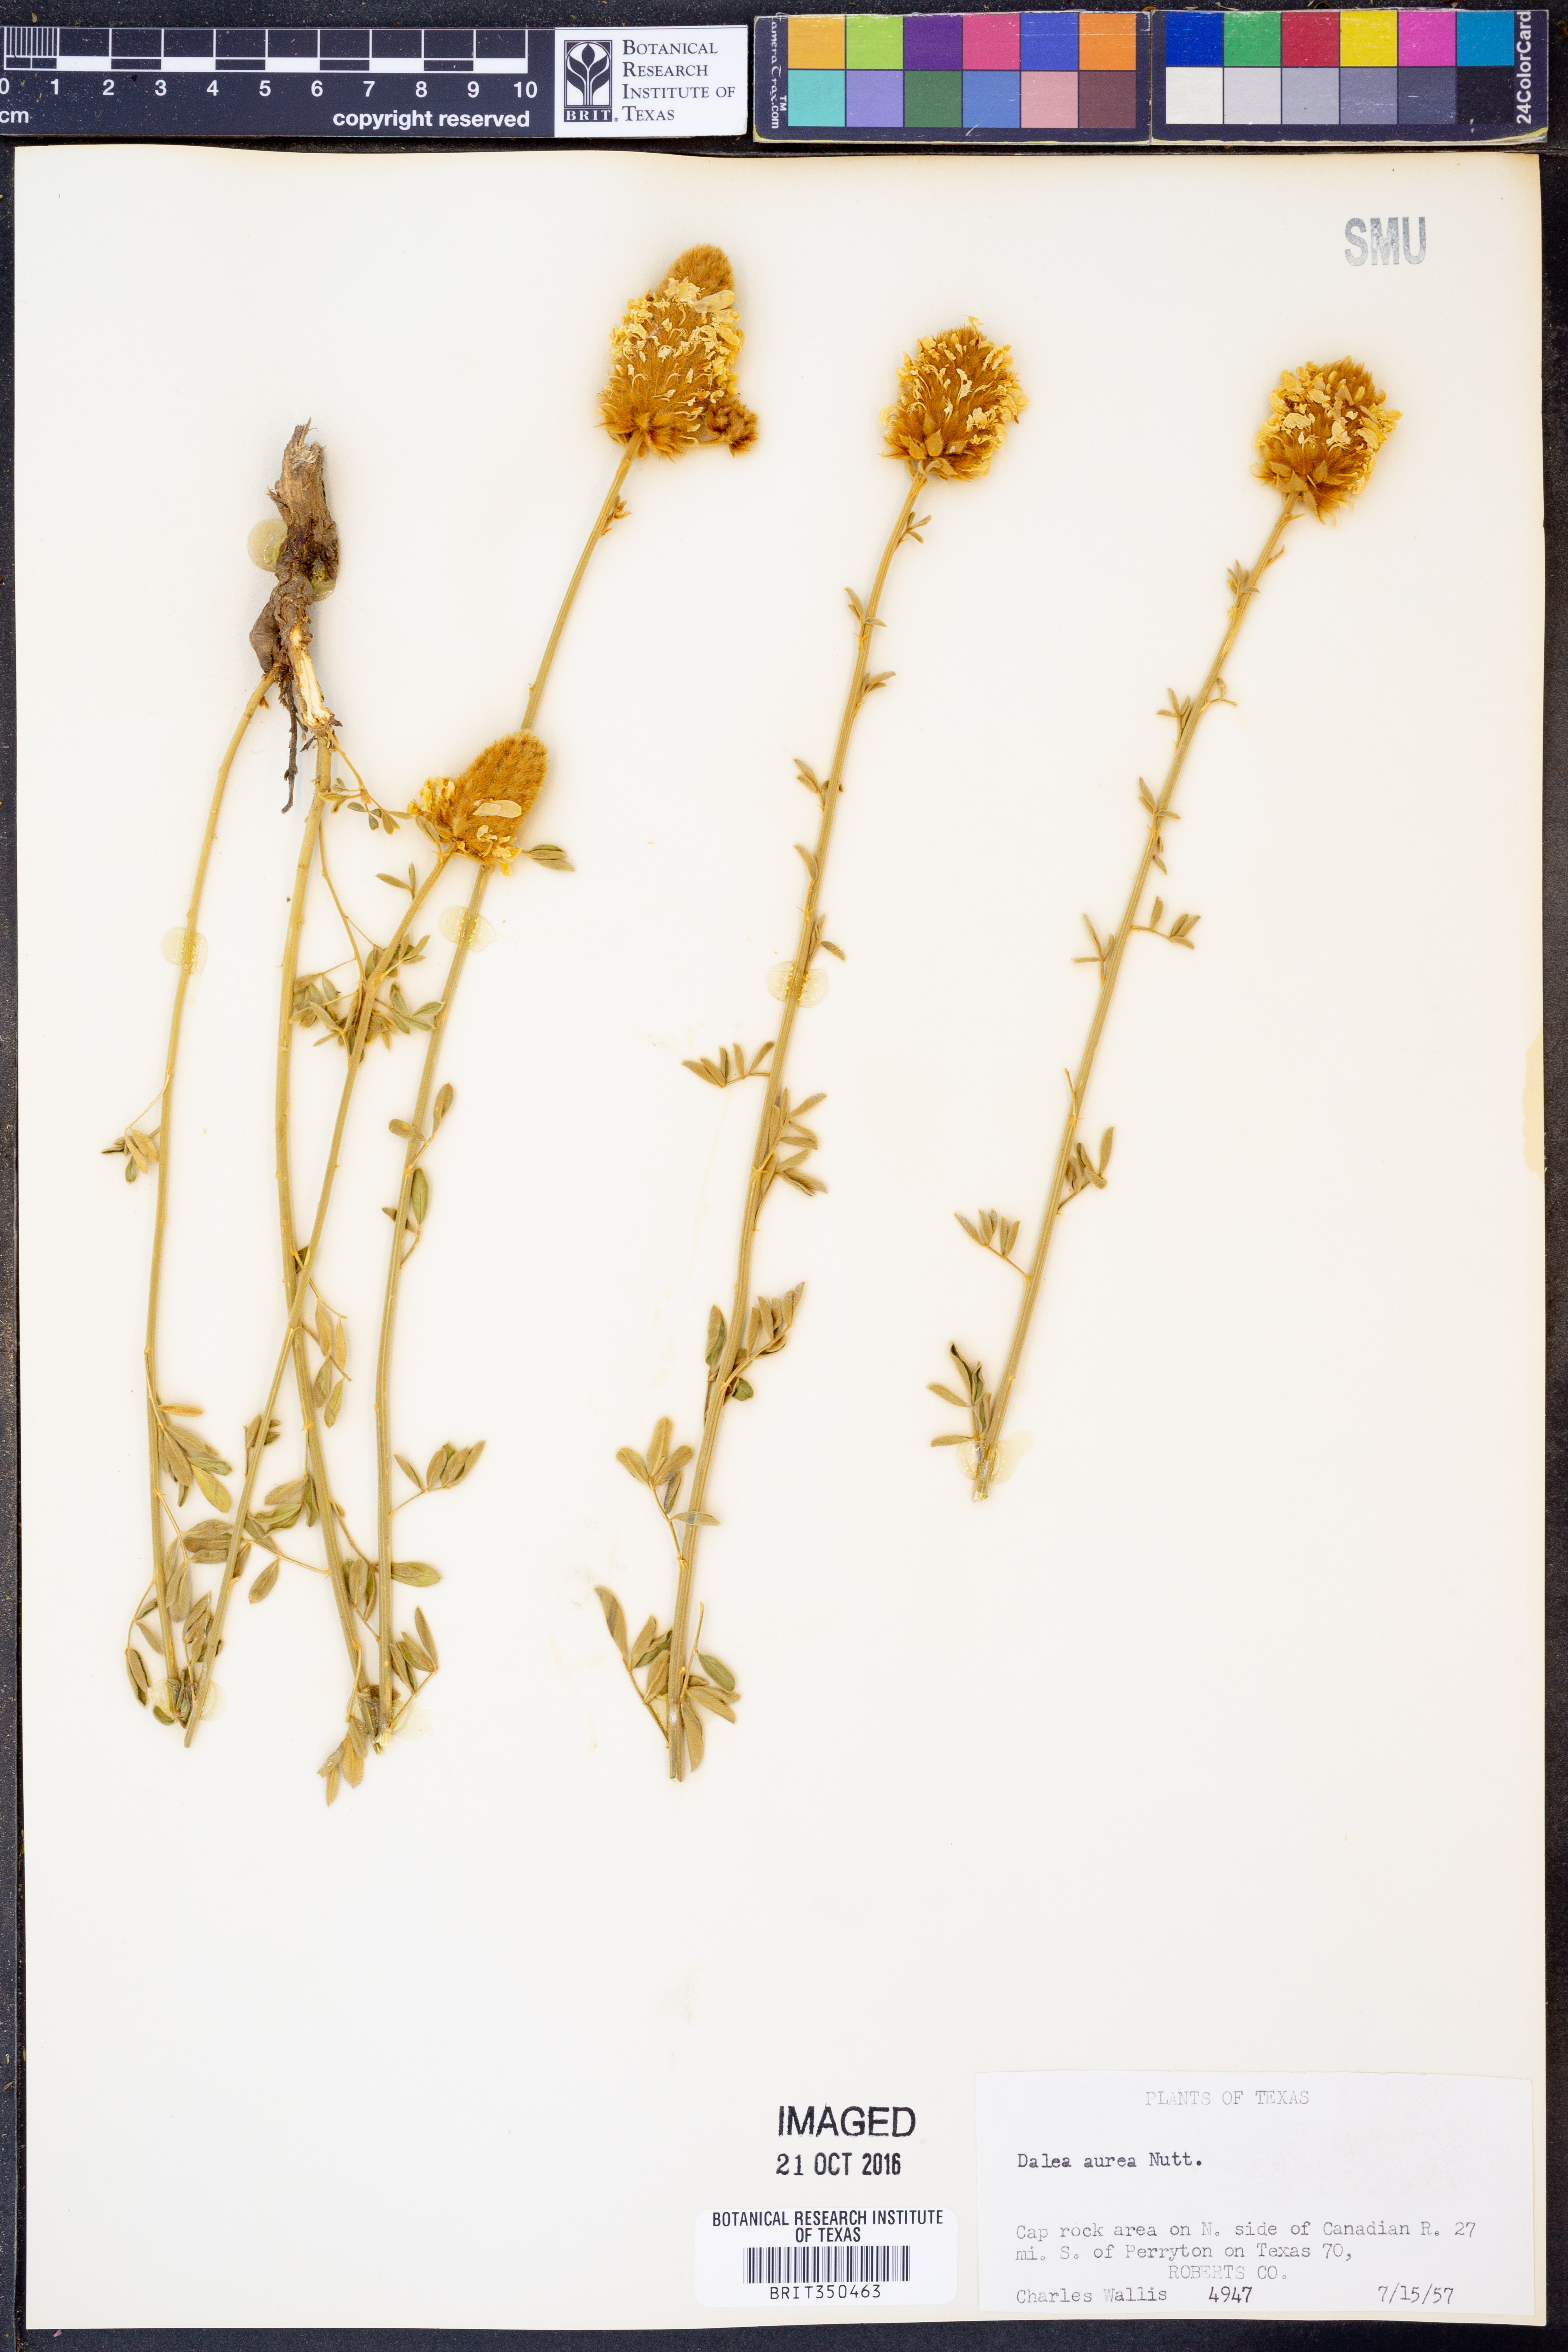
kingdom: Plantae
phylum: Tracheophyta
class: Magnoliopsida
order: Fabales
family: Fabaceae
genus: Dalea
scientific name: Dalea aurea
